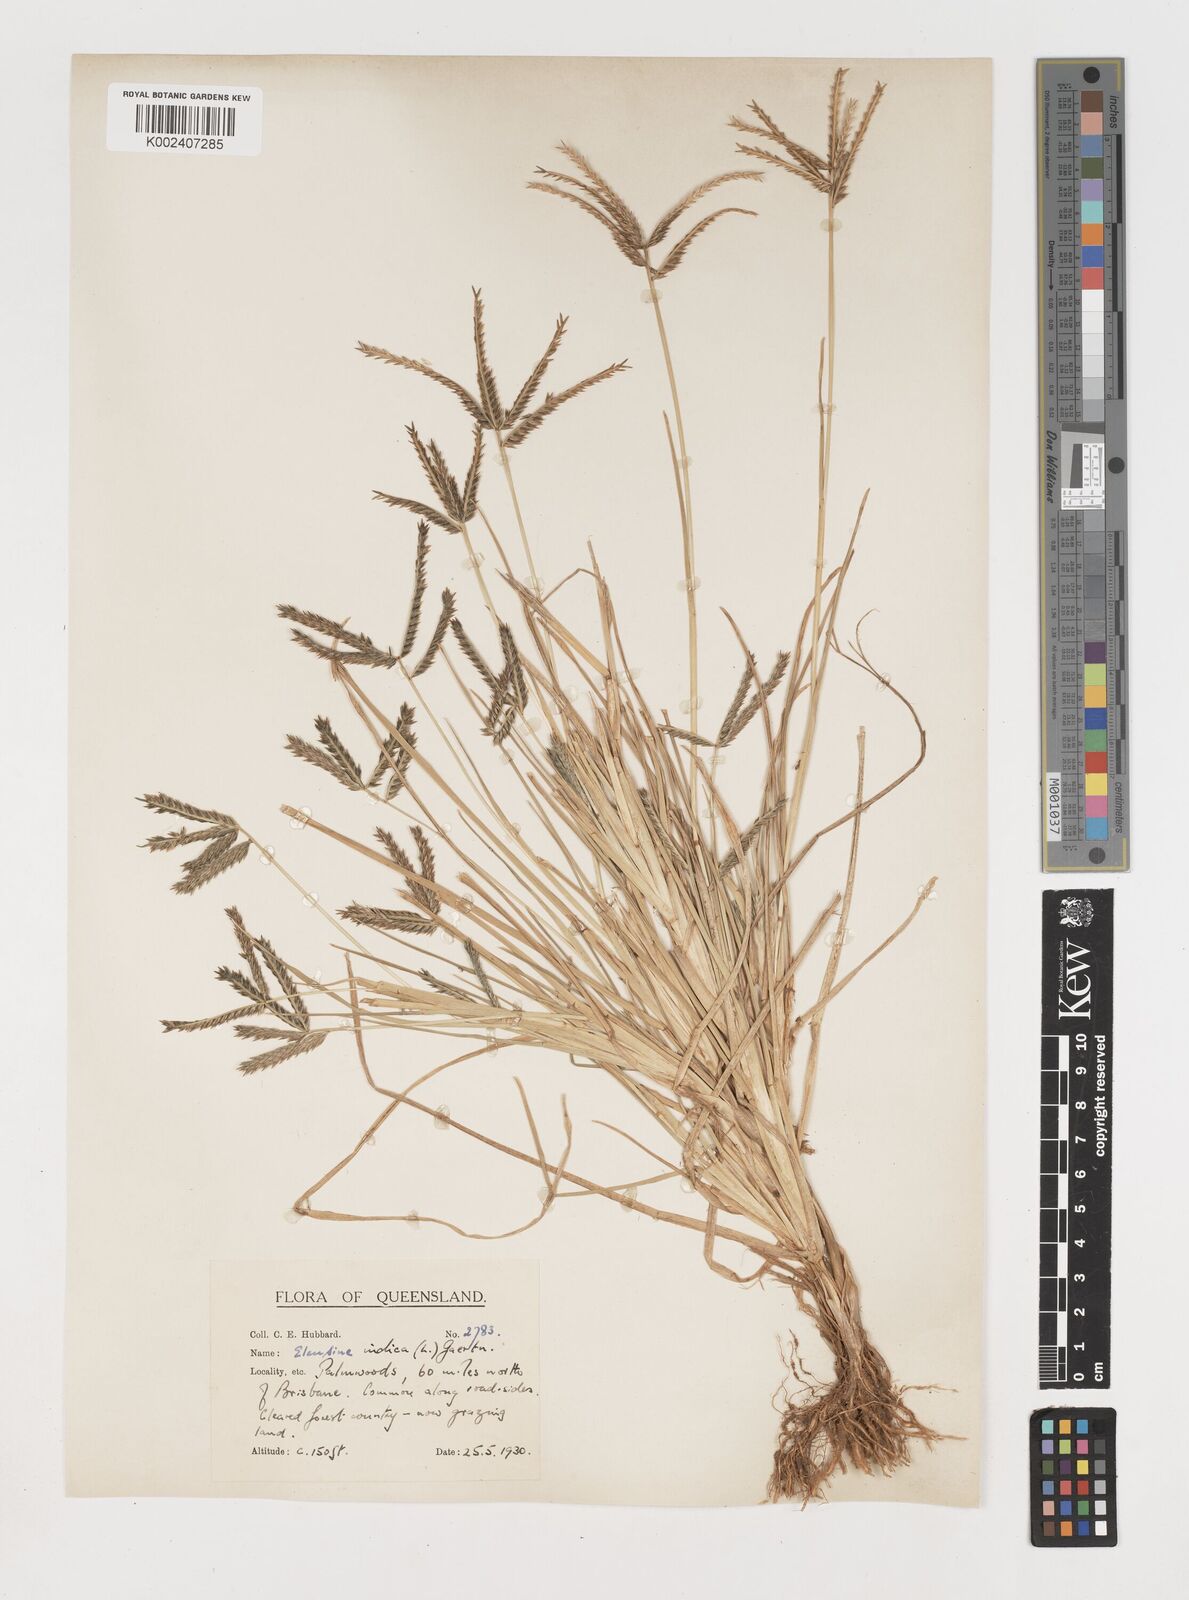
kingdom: Plantae
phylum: Tracheophyta
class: Liliopsida
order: Poales
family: Poaceae
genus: Eleusine
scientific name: Eleusine africana
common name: Wild african finger millet
